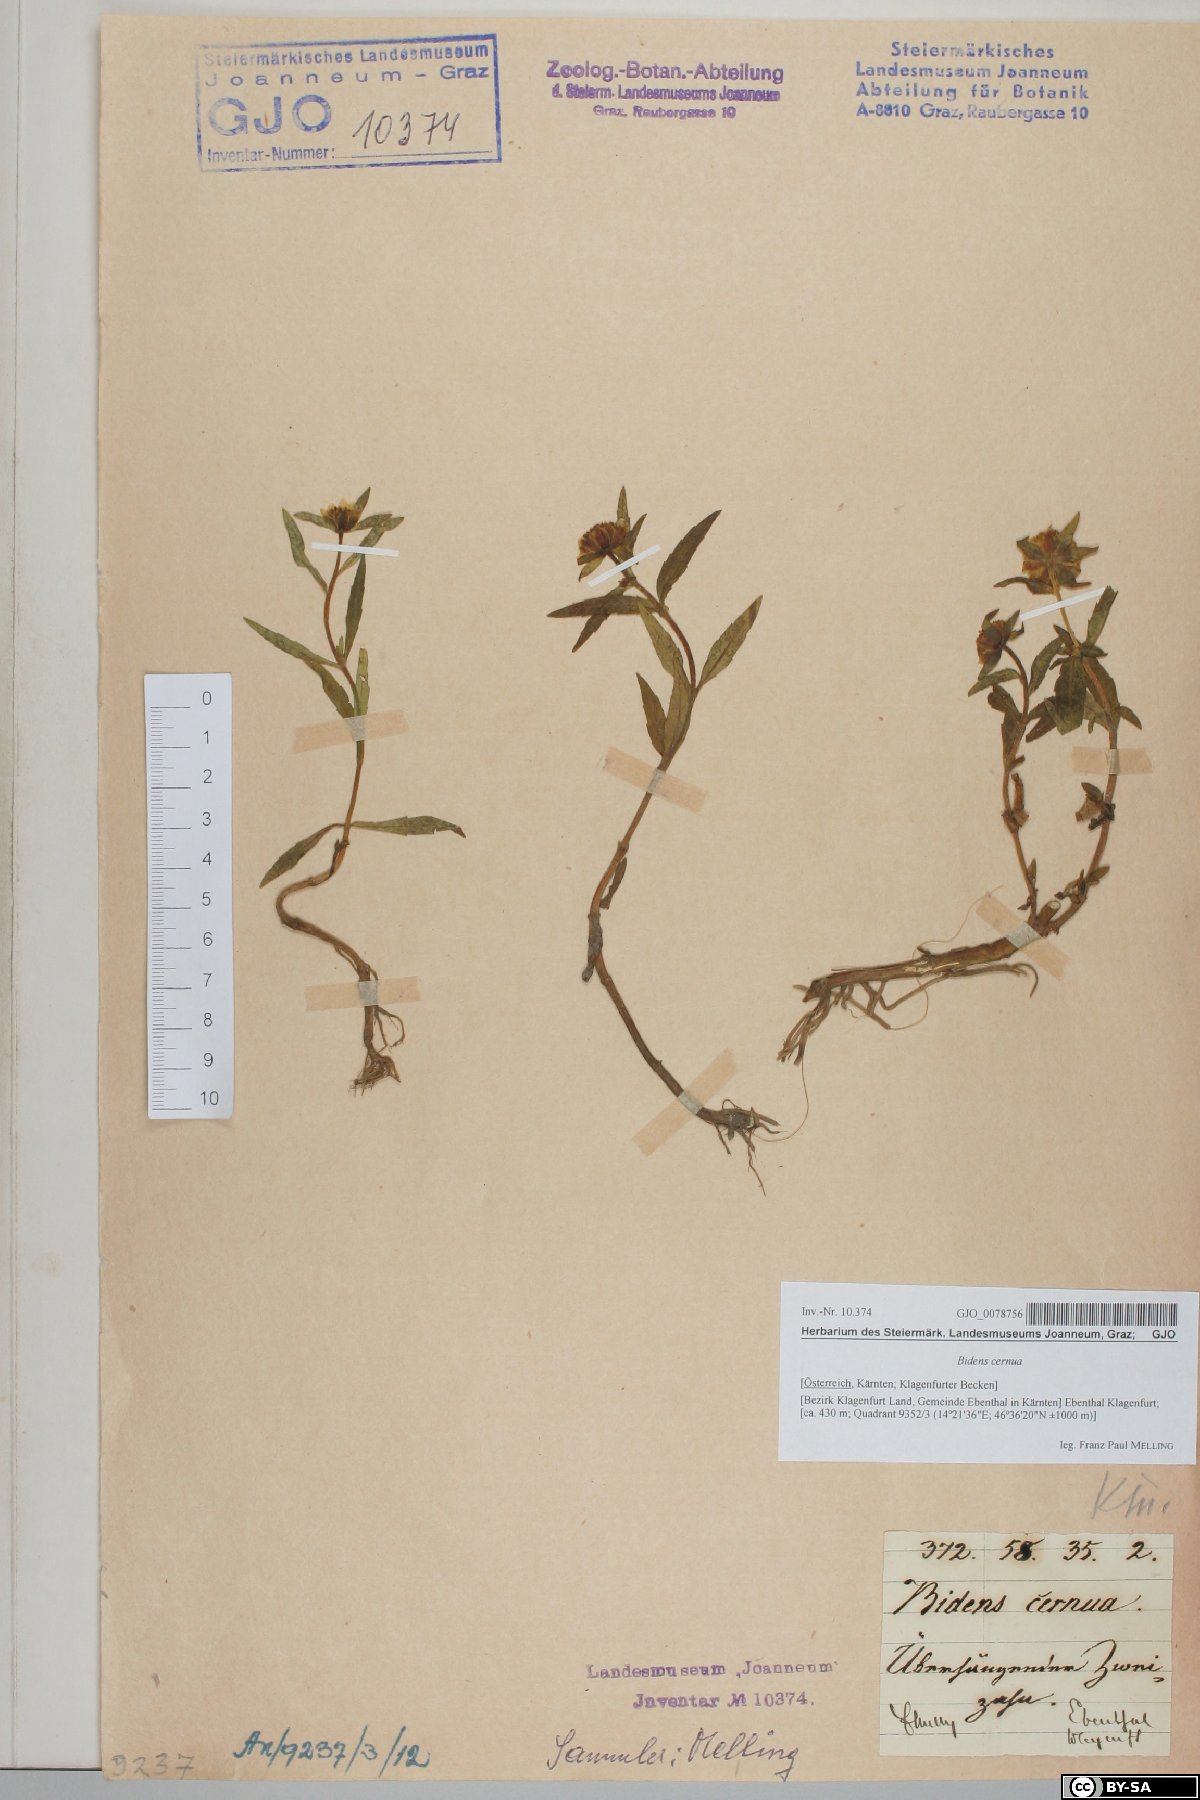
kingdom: Plantae
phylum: Tracheophyta
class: Magnoliopsida
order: Asterales
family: Asteraceae
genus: Bidens
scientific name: Bidens cernua
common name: Nodding bur-marigold
